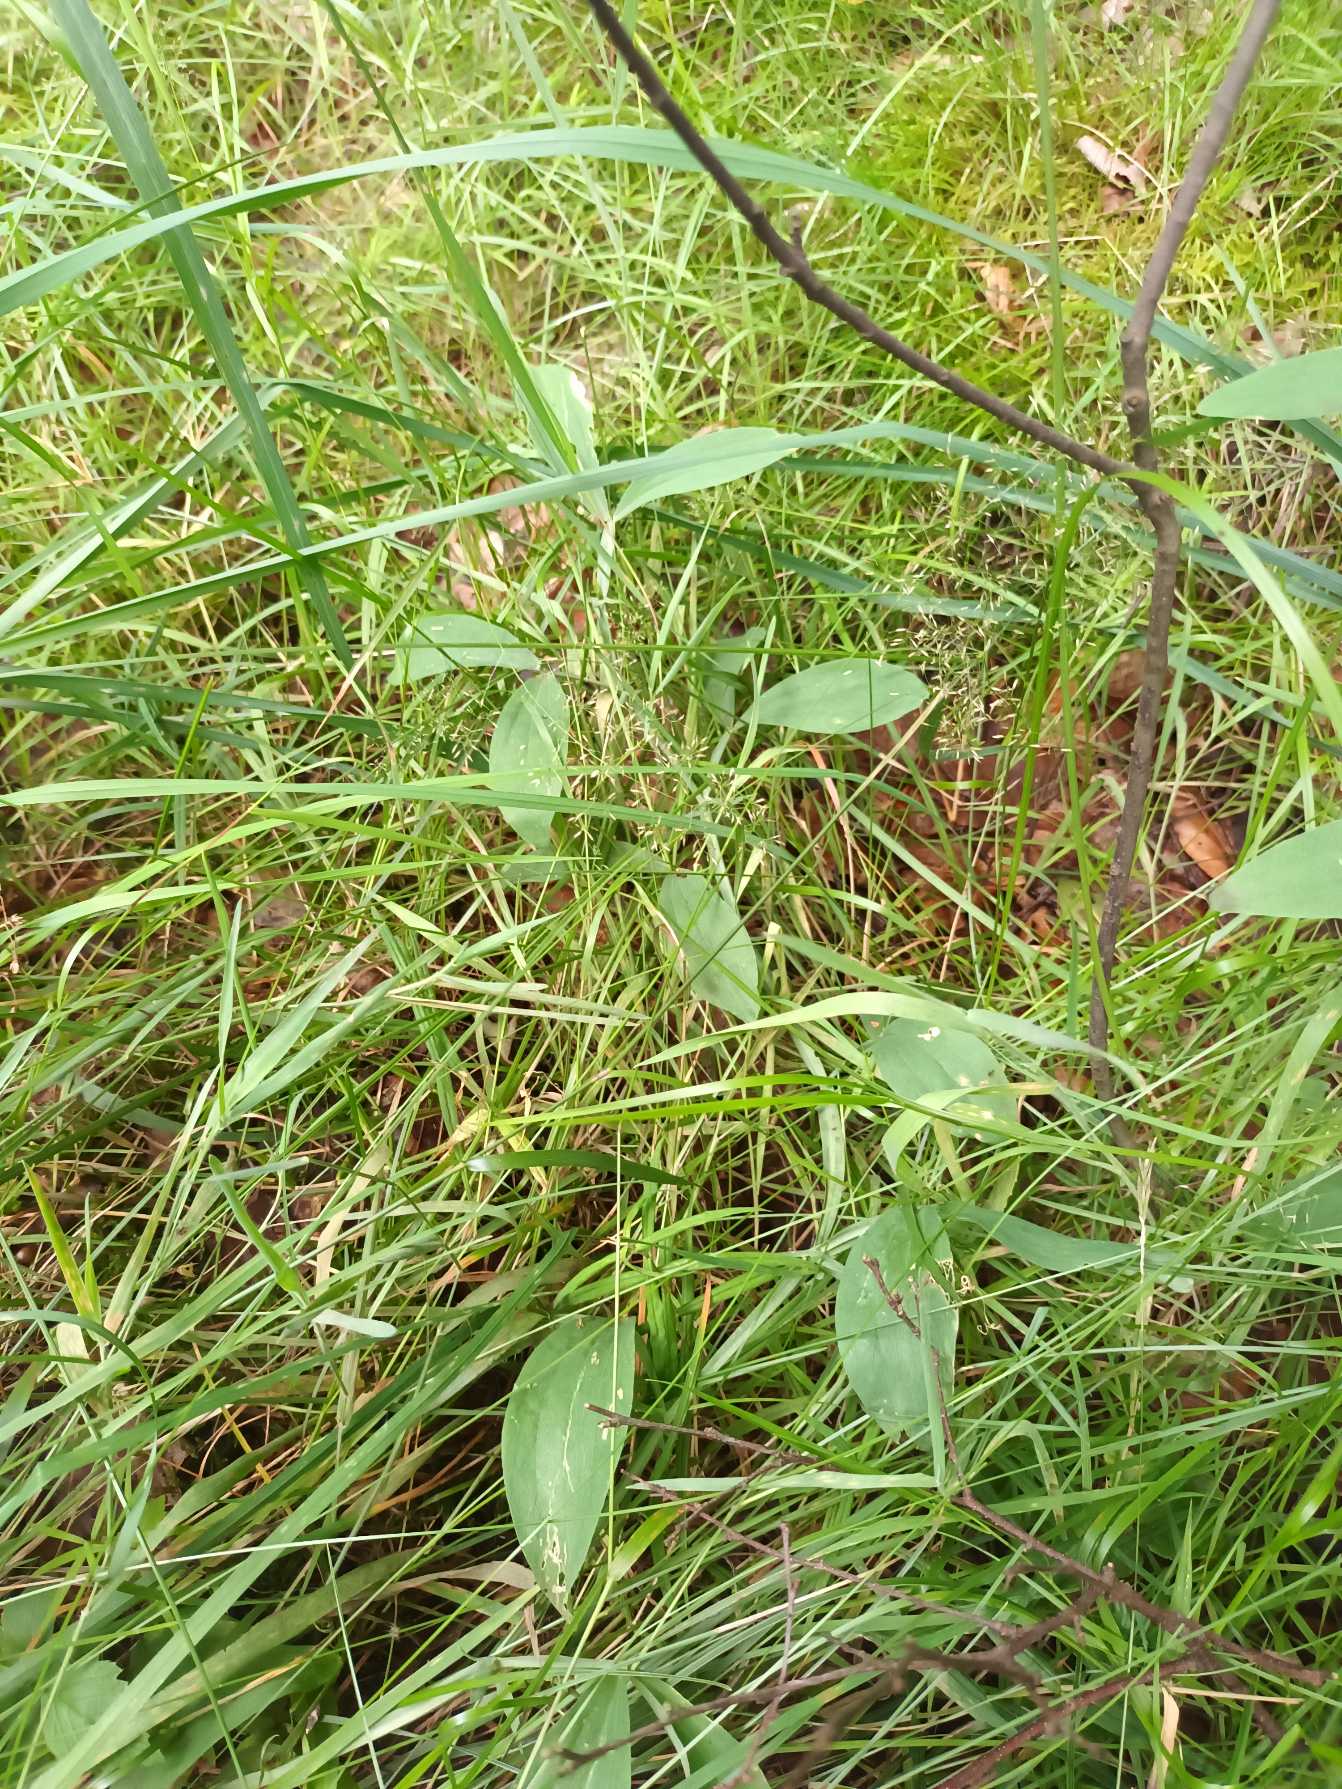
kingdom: Plantae
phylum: Tracheophyta
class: Magnoliopsida
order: Fabales
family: Fabaceae
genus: Lathyrus
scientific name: Lathyrus latifolius
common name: Flerårig ærteblomst
